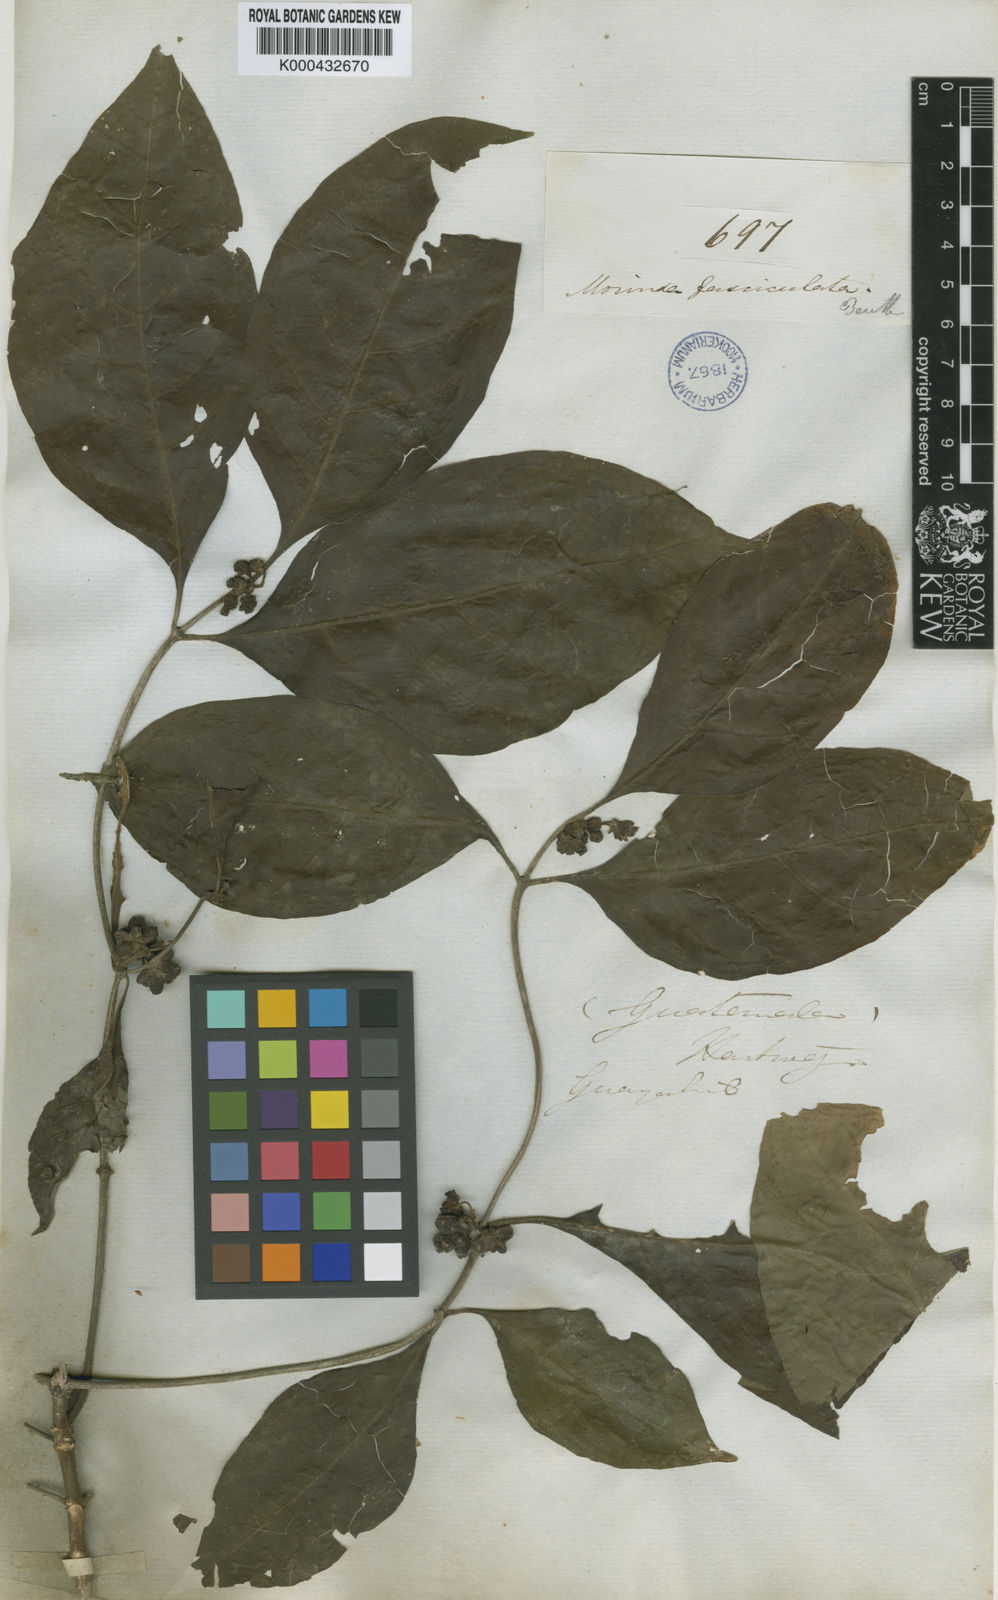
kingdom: Plantae
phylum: Tracheophyta
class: Magnoliopsida
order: Gentianales
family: Rubiaceae
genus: Morinda
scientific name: Morinda fasciculata
